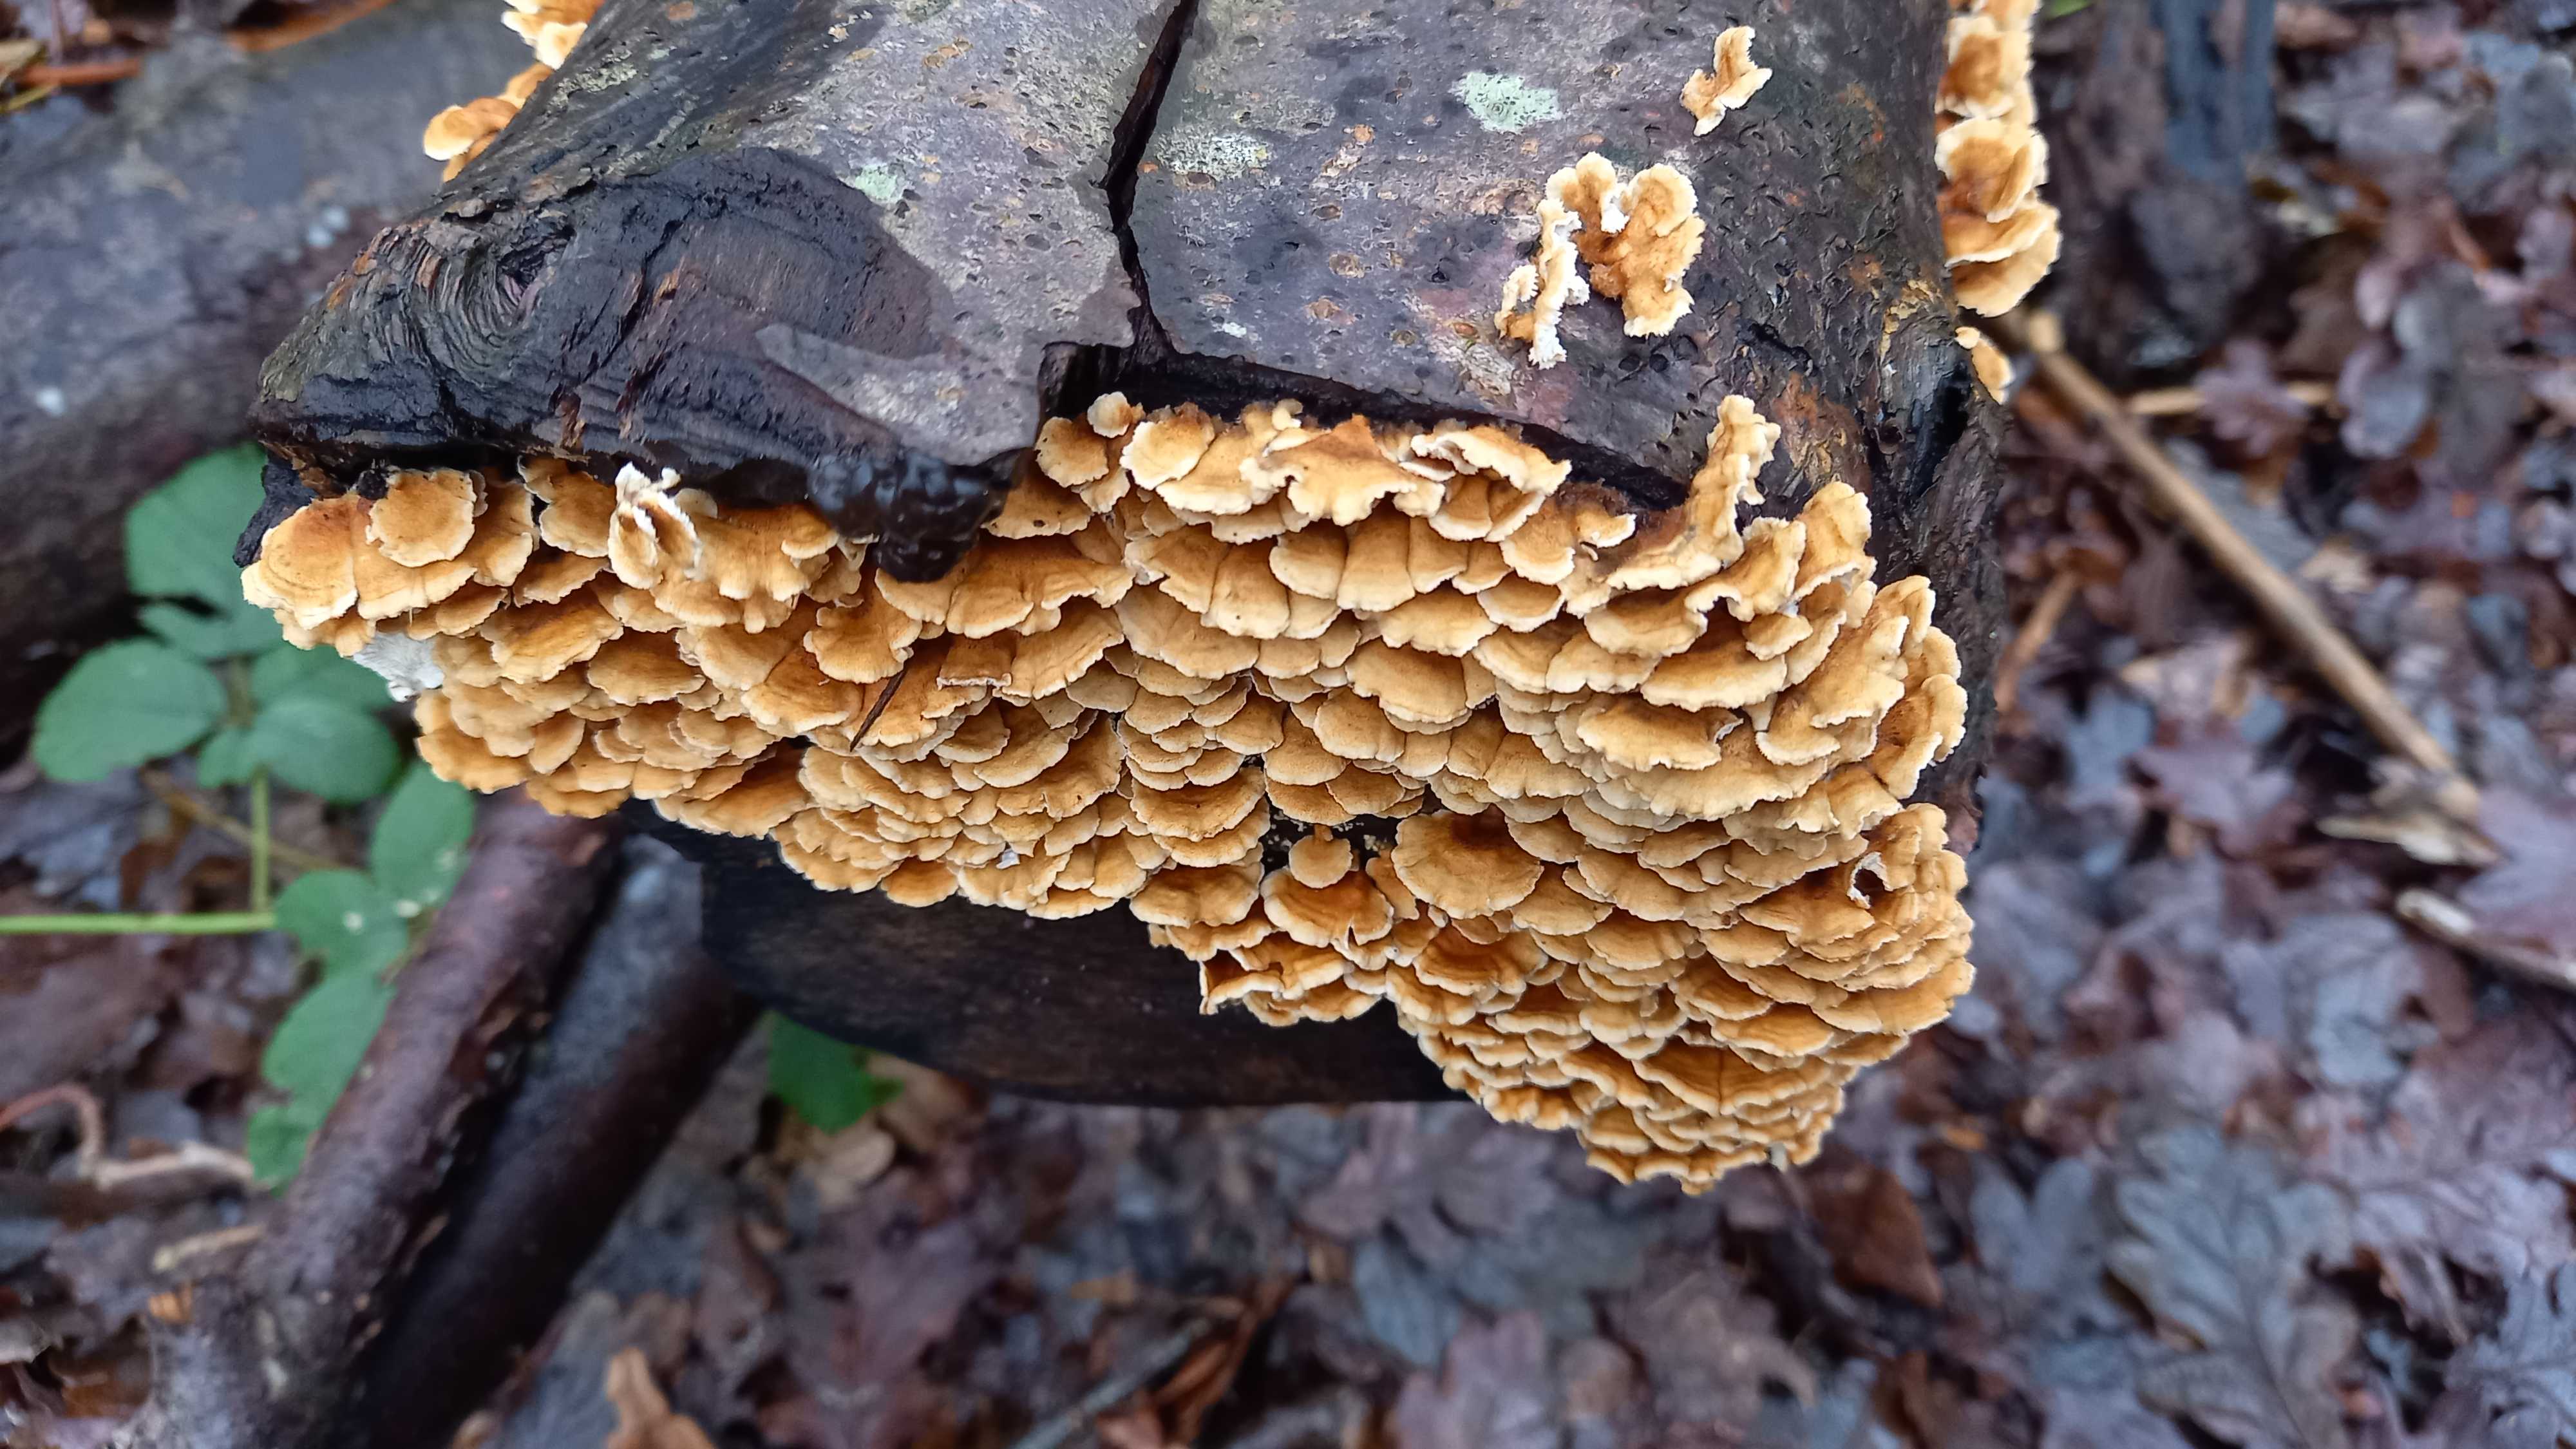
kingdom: Fungi
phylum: Basidiomycota
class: Agaricomycetes
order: Amylocorticiales
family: Amylocorticiaceae
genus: Plicaturopsis
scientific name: Plicaturopsis crispa
